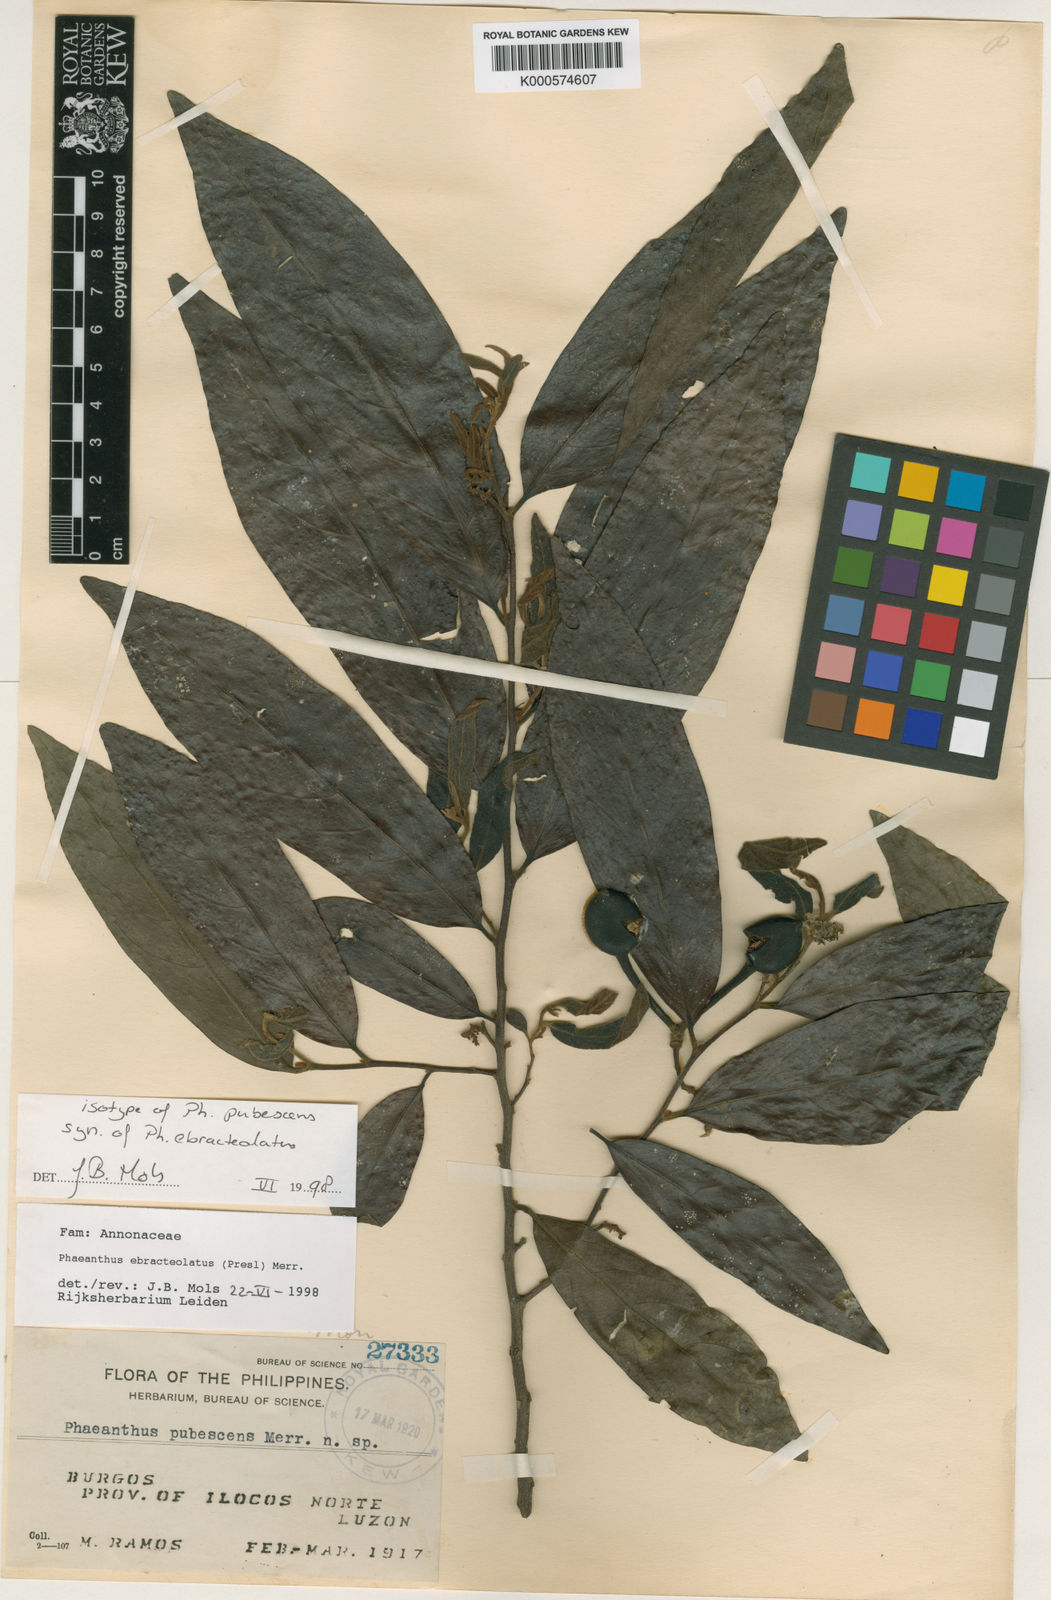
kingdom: Plantae
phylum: Tracheophyta
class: Magnoliopsida
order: Magnoliales
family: Annonaceae
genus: Phaeanthus
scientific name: Phaeanthus ophthalmicus
